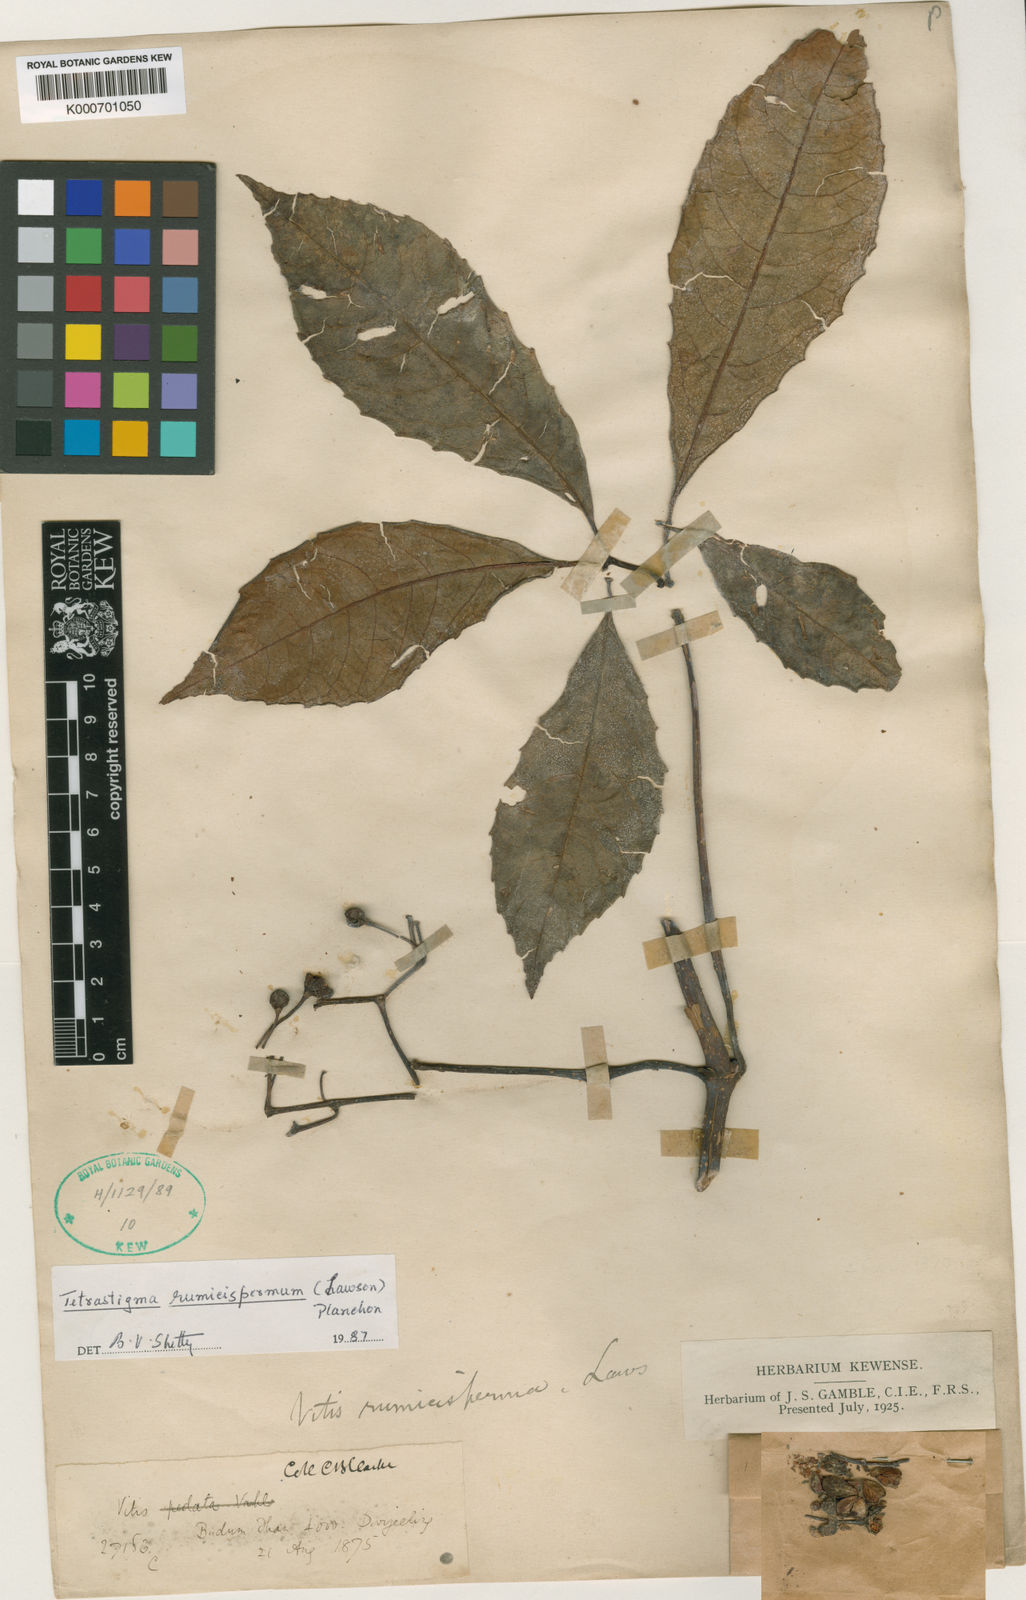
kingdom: Plantae
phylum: Tracheophyta
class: Magnoliopsida
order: Vitales
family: Vitaceae
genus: Tetrastigma
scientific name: Tetrastigma rumicispermum
